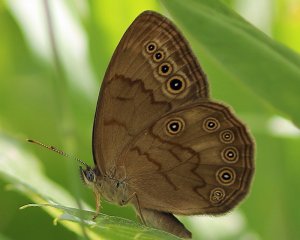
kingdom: Animalia
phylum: Arthropoda
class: Insecta
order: Lepidoptera
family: Nymphalidae
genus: Lethe
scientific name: Lethe eurydice
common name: Eyed Brown
